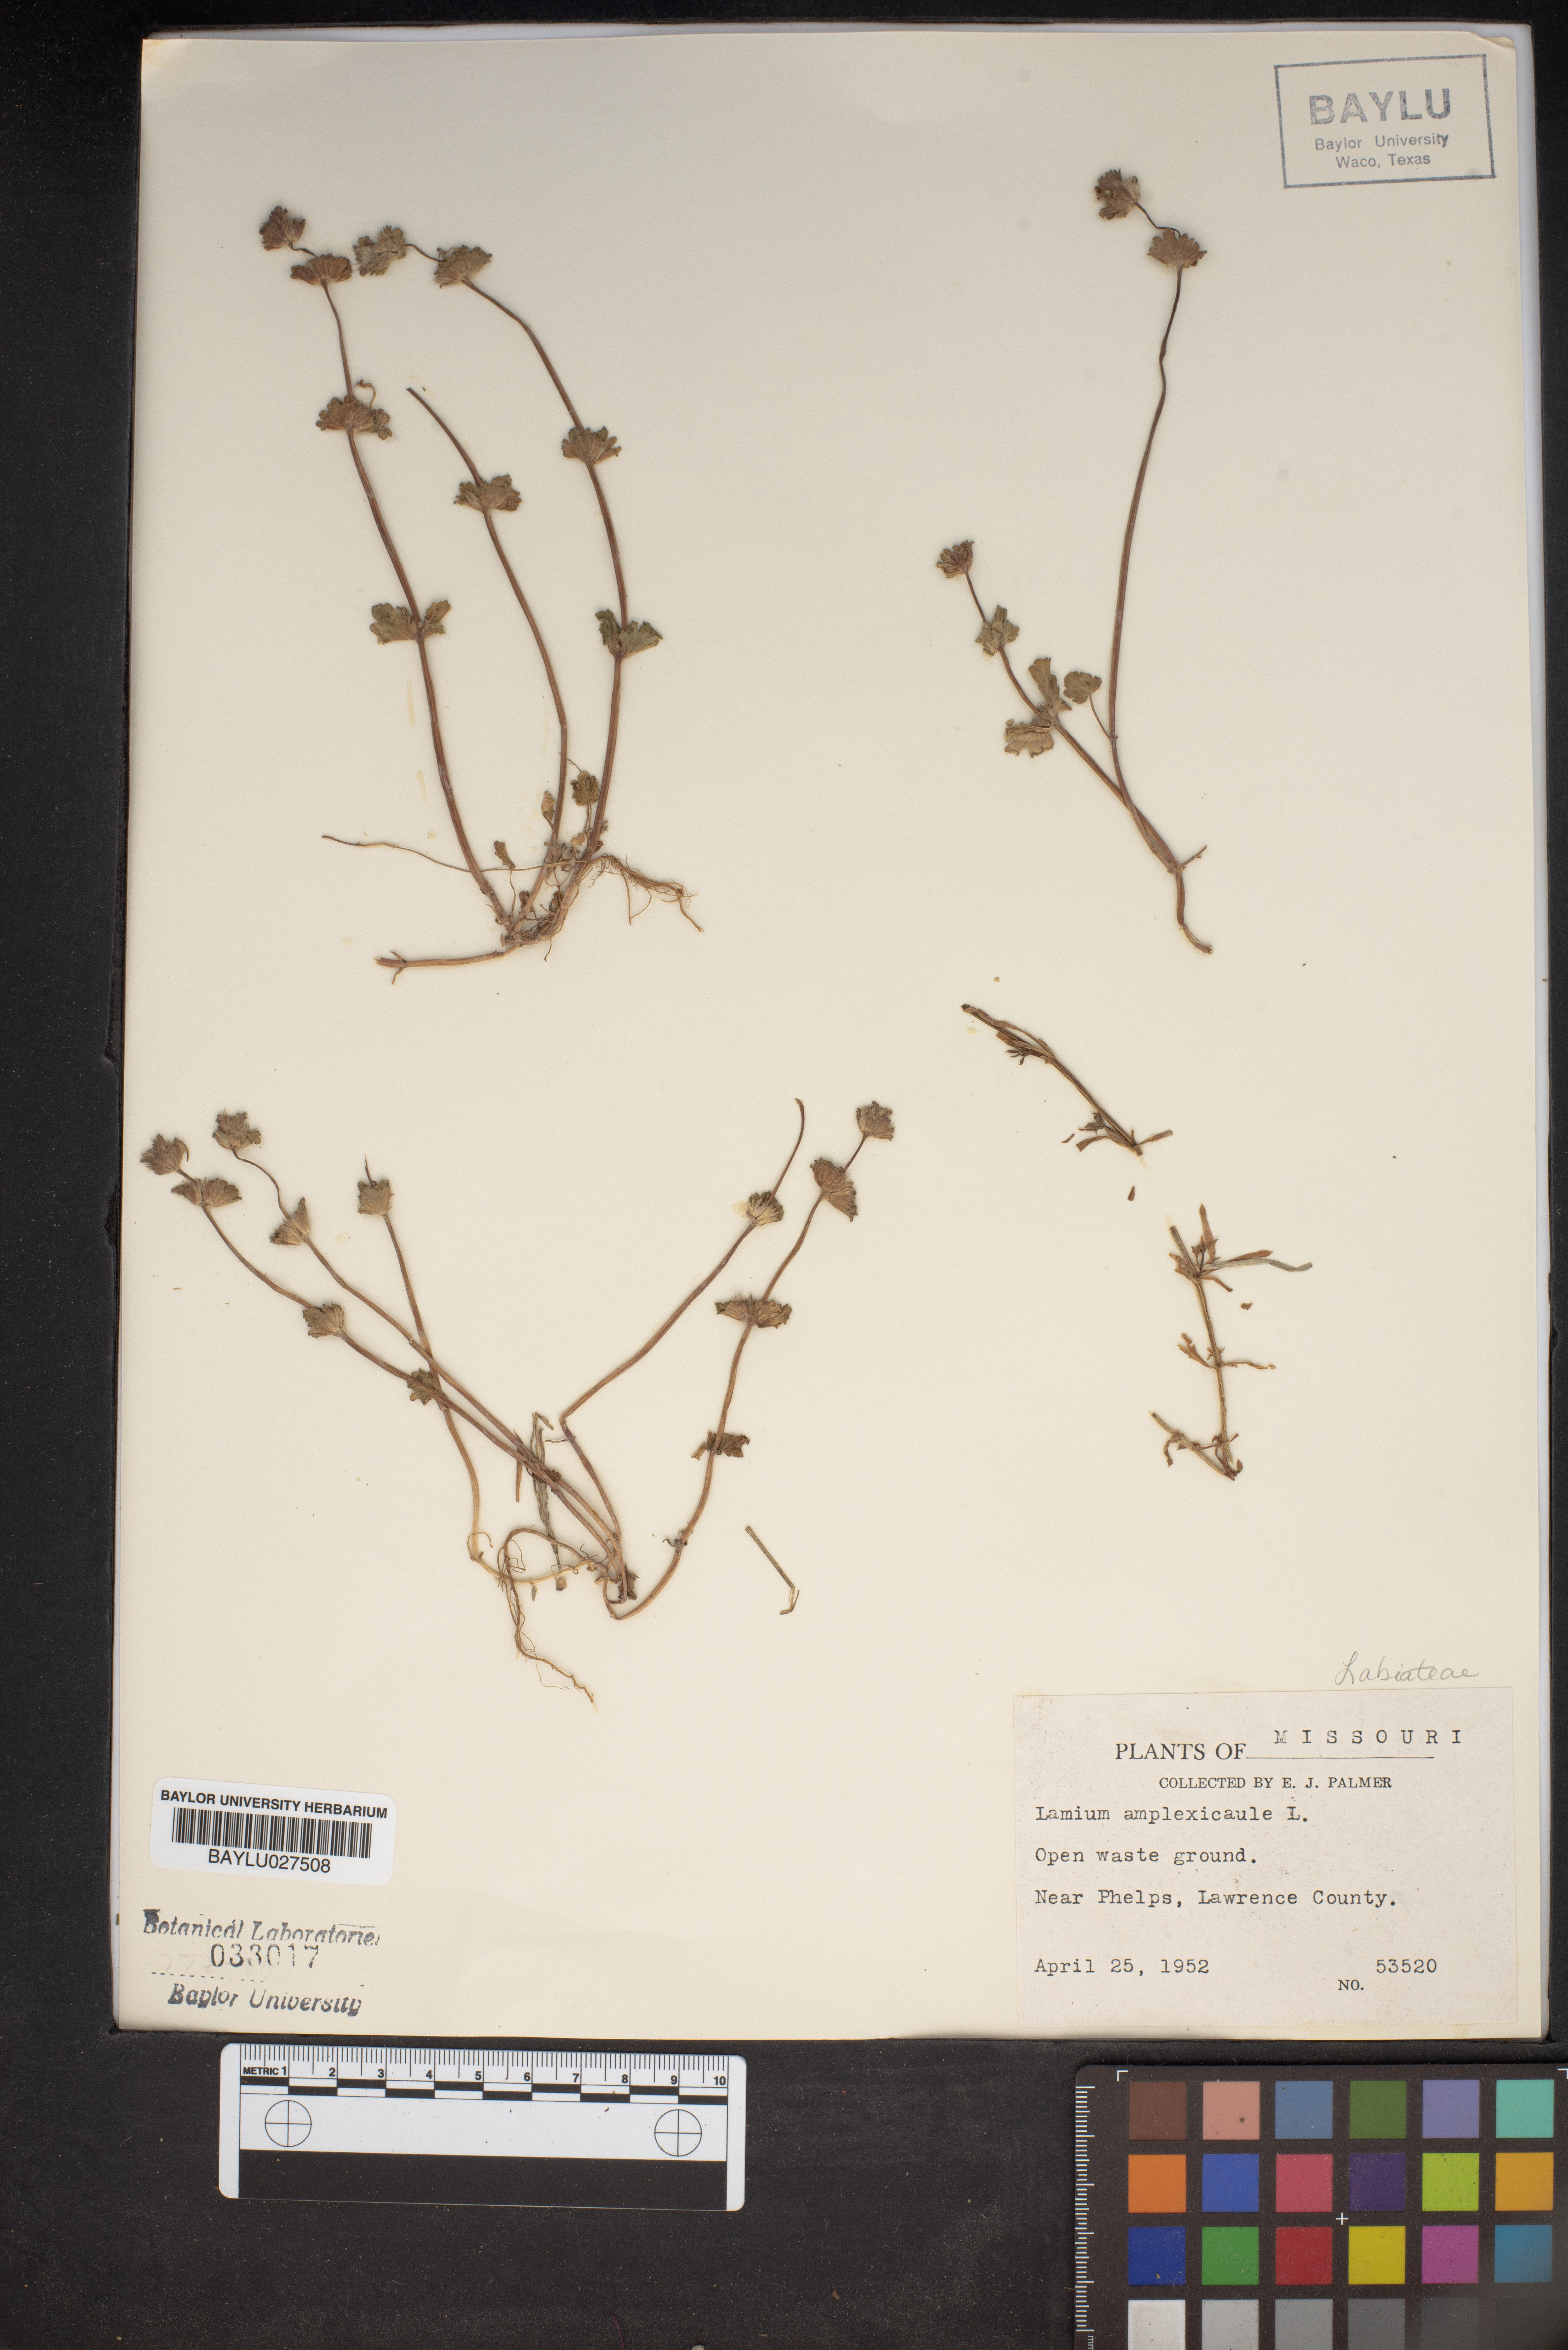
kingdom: Plantae
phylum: Tracheophyta
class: Magnoliopsida
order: Lamiales
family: Lamiaceae
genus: Lamium
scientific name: Lamium amplexicaule
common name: Henbit dead-nettle
